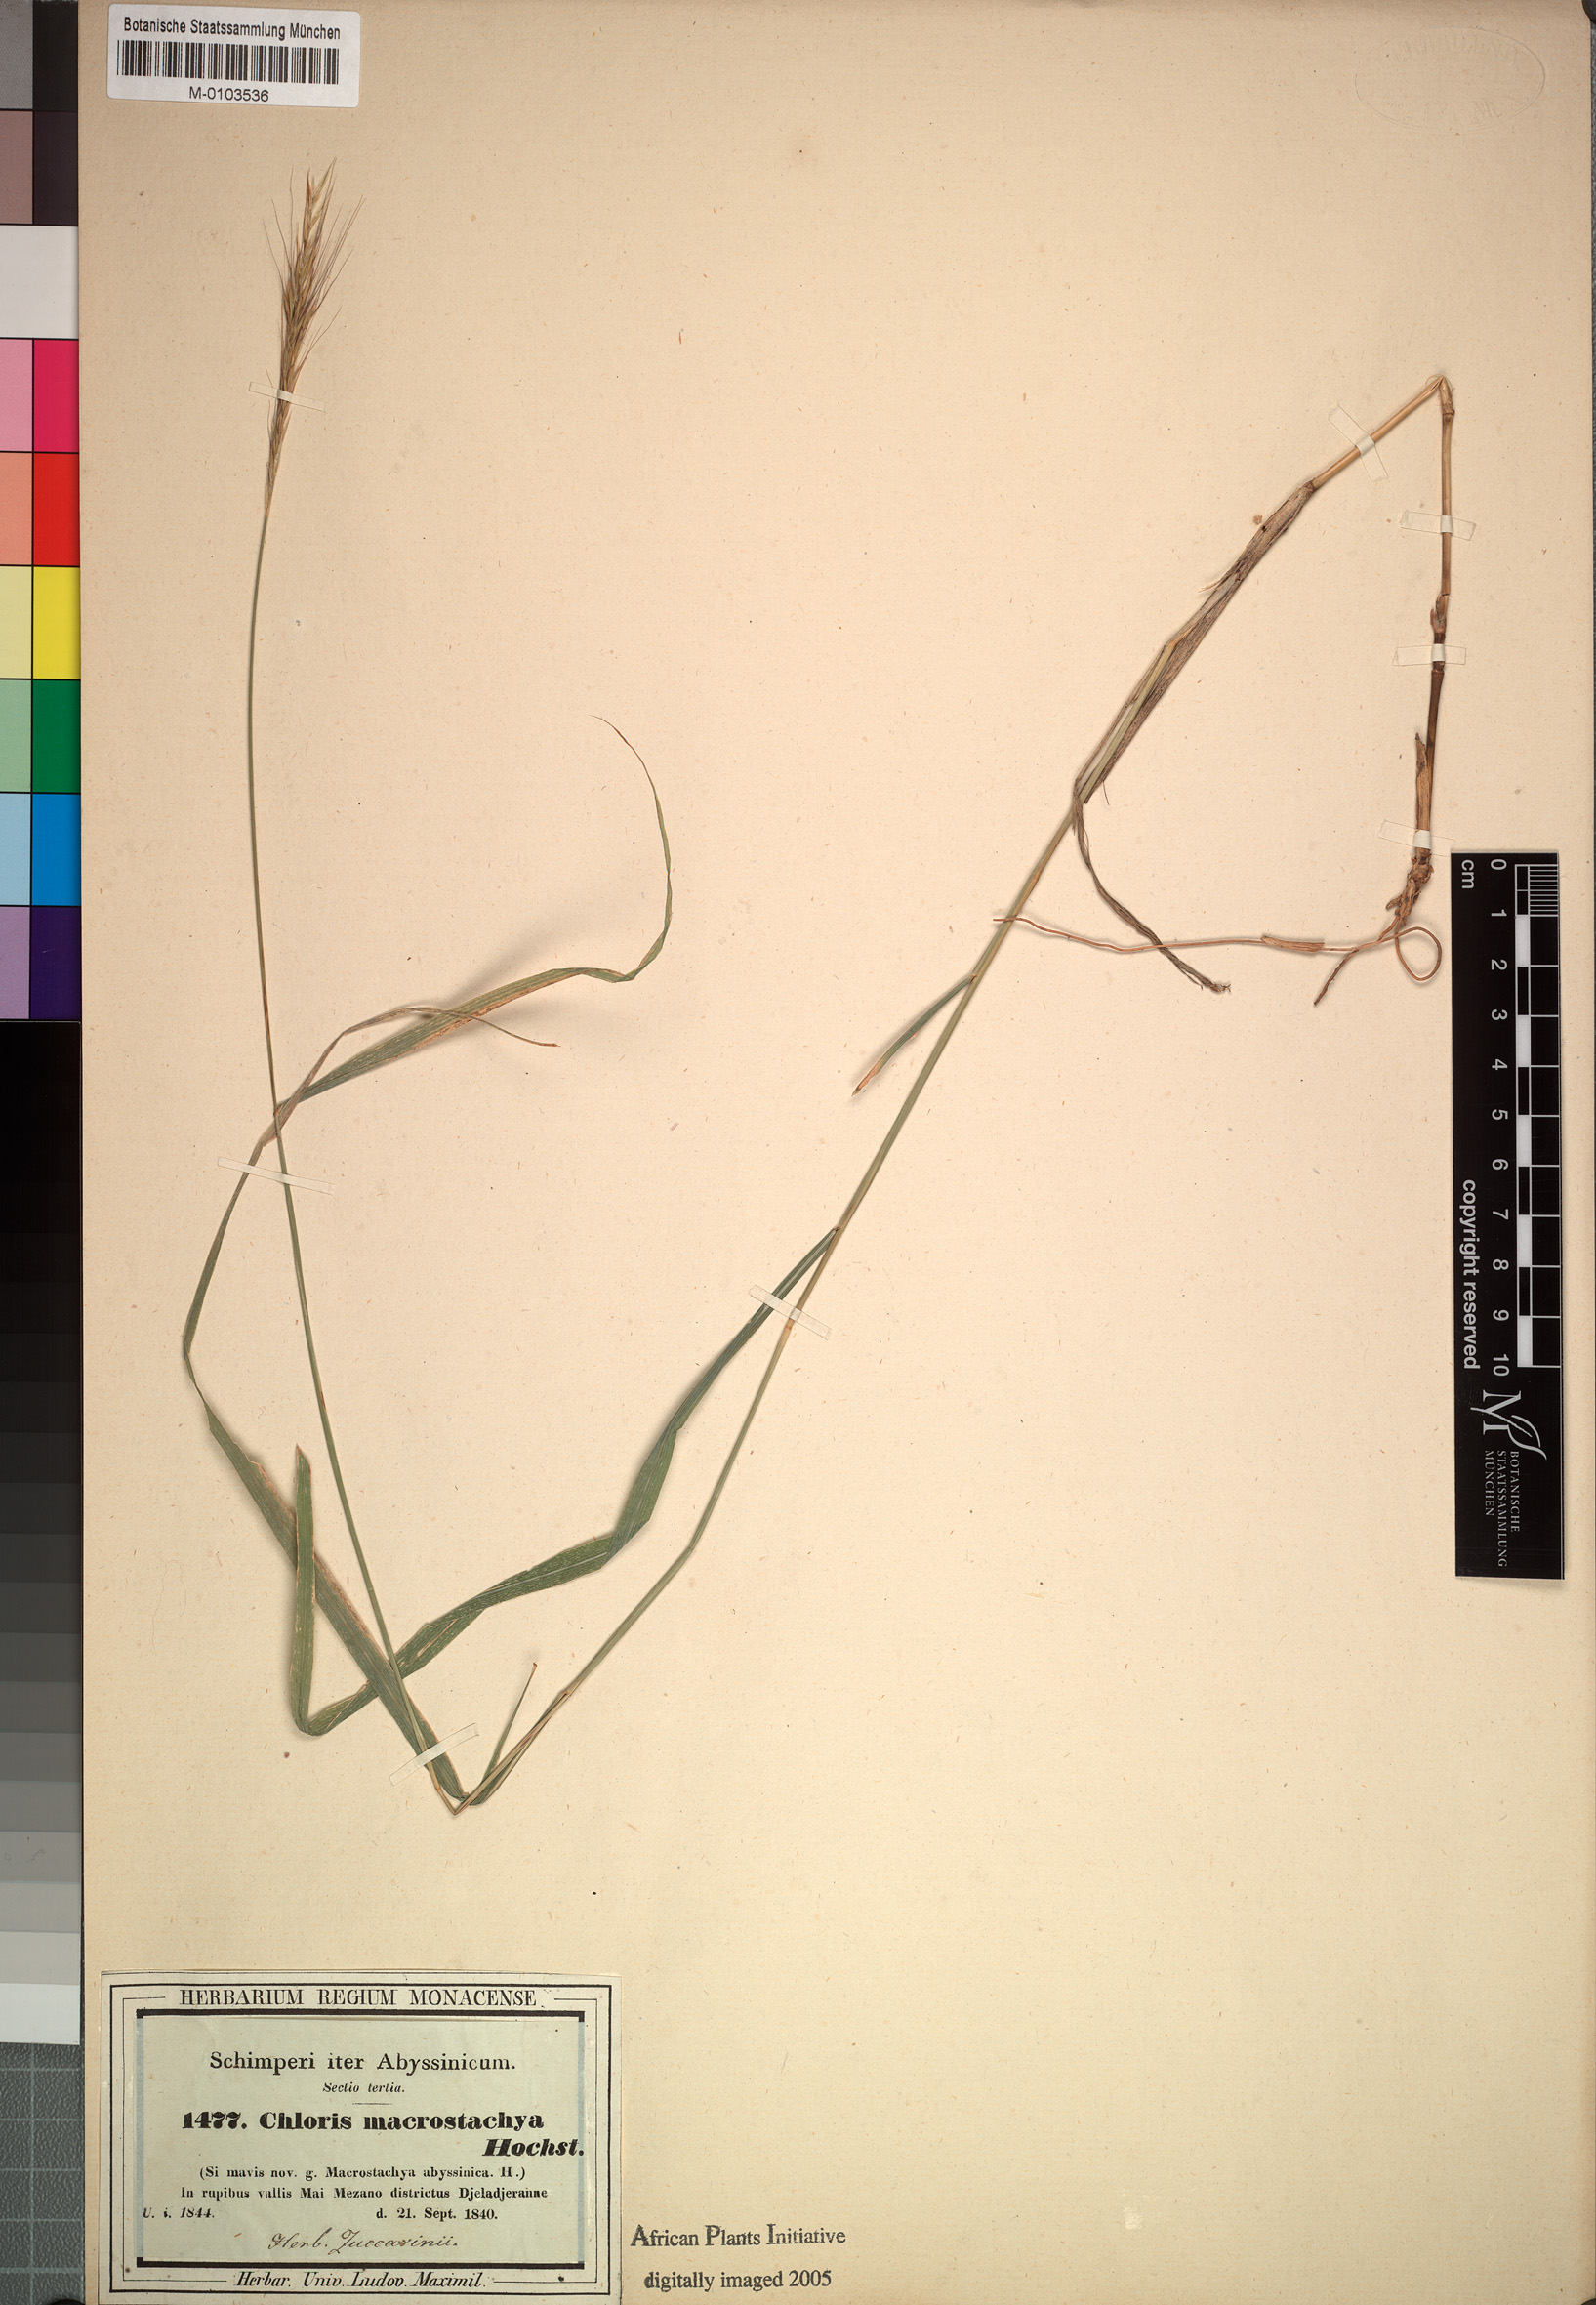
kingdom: Plantae
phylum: Tracheophyta
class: Liliopsida
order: Poales
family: Poaceae
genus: Enteropogon
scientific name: Enteropogon macrostachyus
